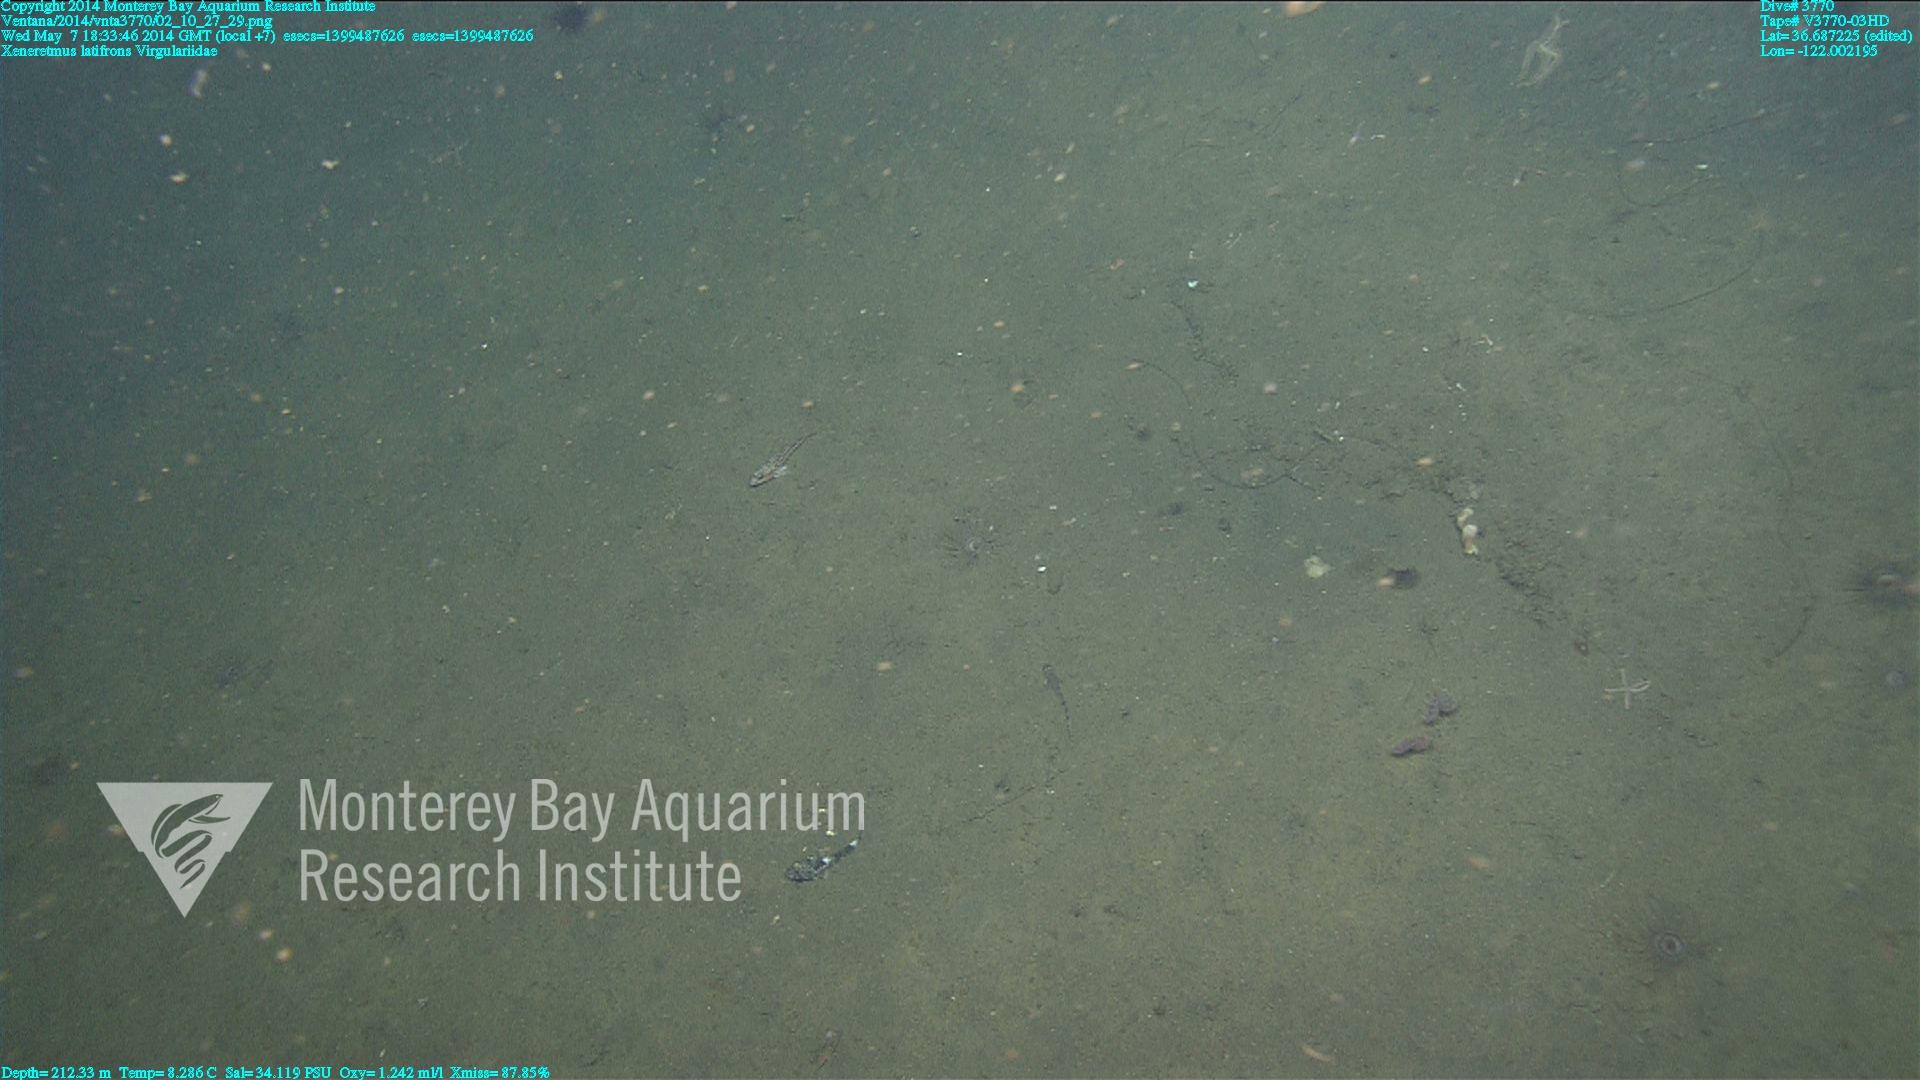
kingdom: Animalia
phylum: Cnidaria
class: Anthozoa
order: Scleralcyonacea
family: Virgulariidae
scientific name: Virgulariidae
